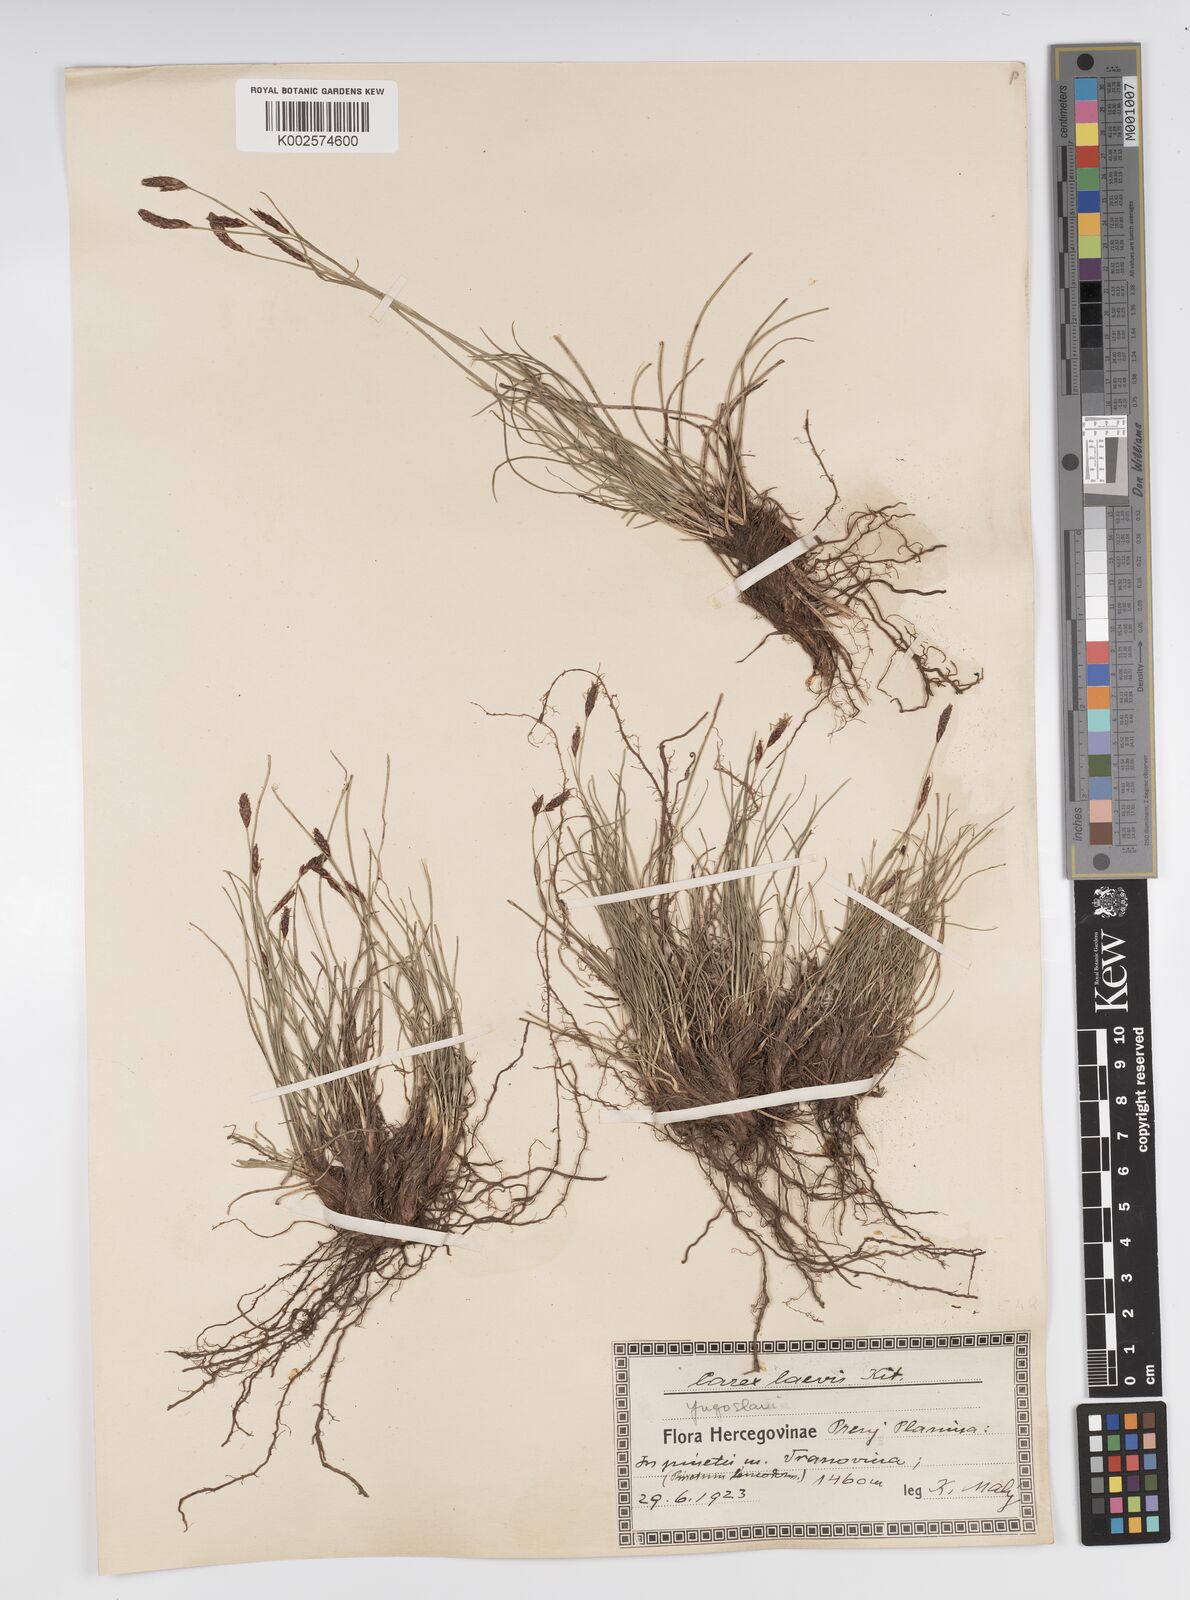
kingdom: Plantae
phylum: Tracheophyta
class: Liliopsida
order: Poales
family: Cyperaceae
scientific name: Cyperaceae
